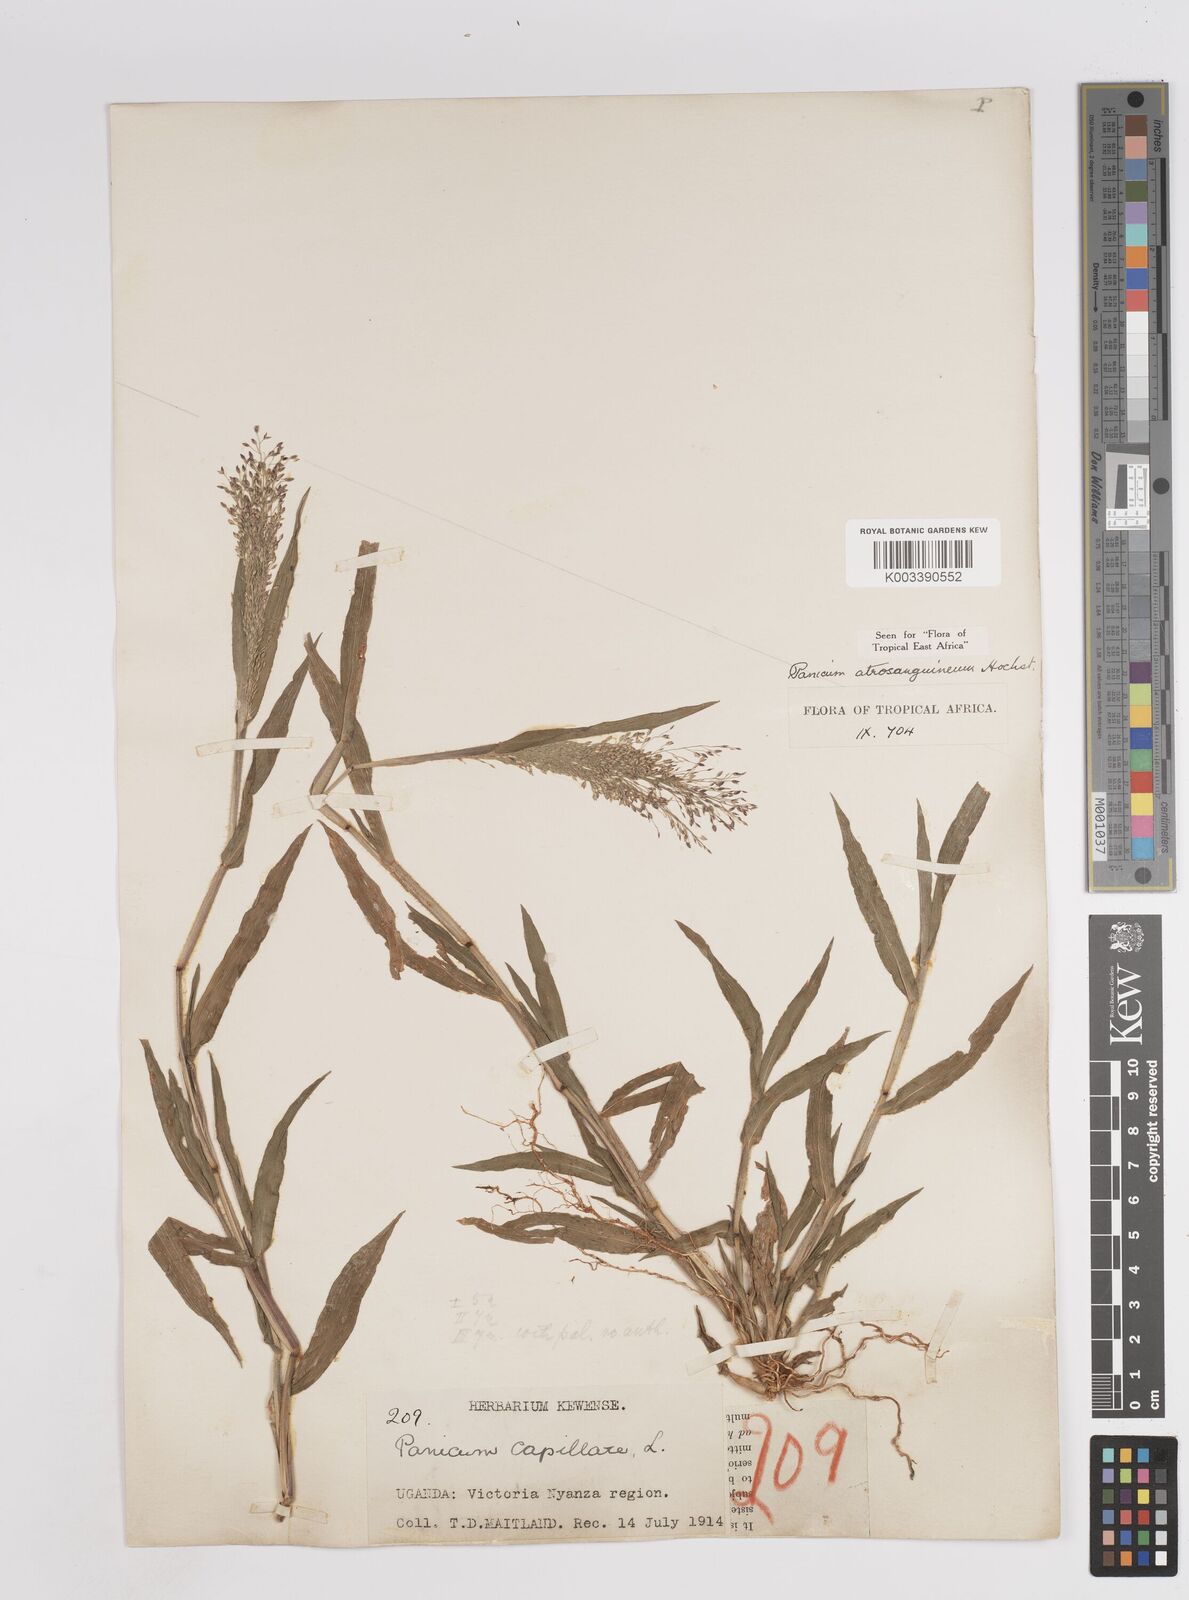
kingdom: Plantae
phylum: Tracheophyta
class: Liliopsida
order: Poales
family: Poaceae
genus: Panicum
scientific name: Panicum atrosanguineum
